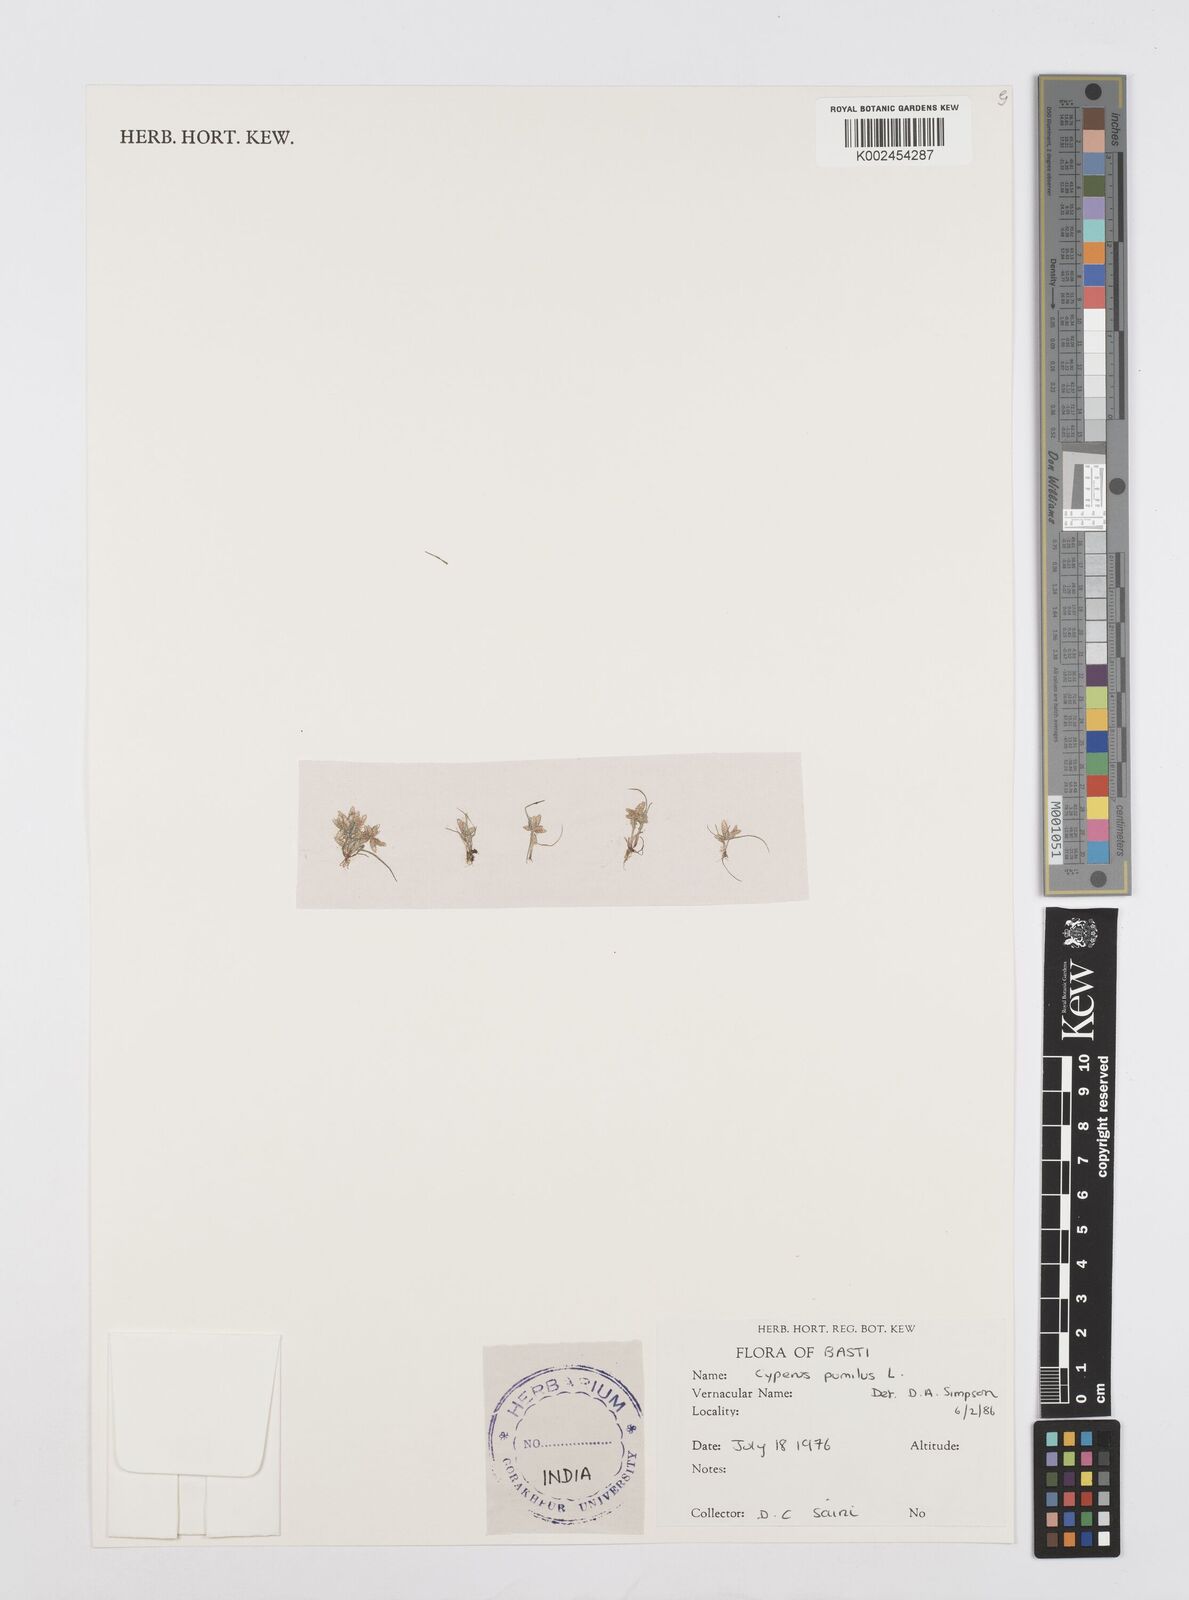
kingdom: Plantae
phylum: Tracheophyta
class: Liliopsida
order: Poales
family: Cyperaceae
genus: Cyperus
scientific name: Cyperus pumilus
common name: Low flatsedge
